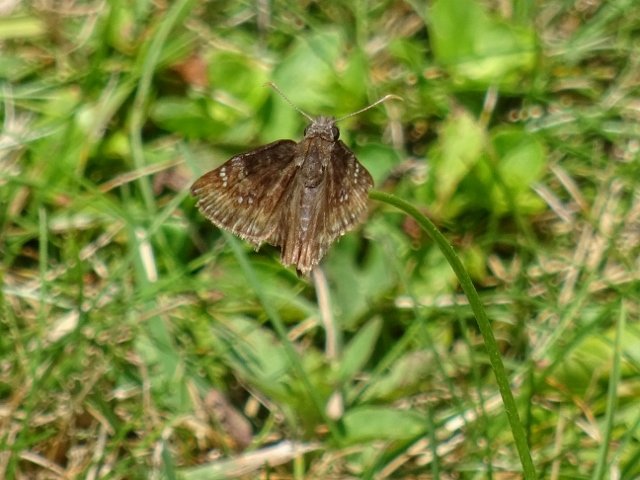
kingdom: Animalia
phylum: Arthropoda
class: Insecta
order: Lepidoptera
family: Hesperiidae
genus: Gesta
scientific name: Gesta
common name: Columbine Duskywing
